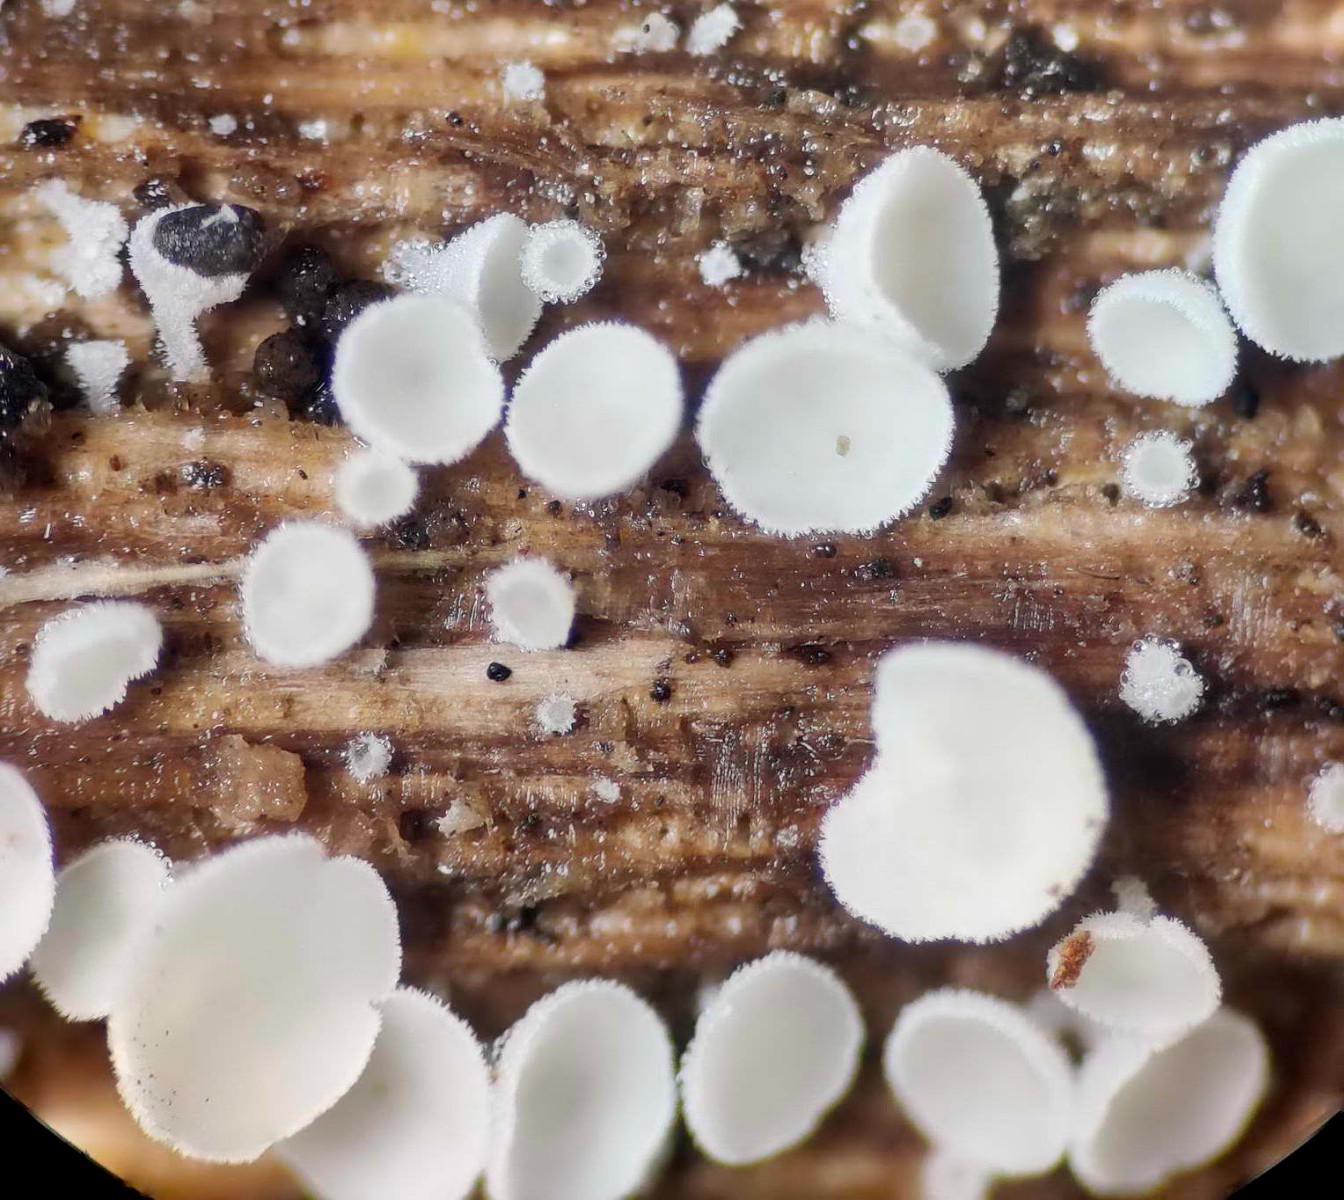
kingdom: Fungi
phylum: Ascomycota
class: Leotiomycetes
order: Helotiales
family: Lachnaceae
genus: Lachnum
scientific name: Lachnum impudicum
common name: vinter-frynseskive
